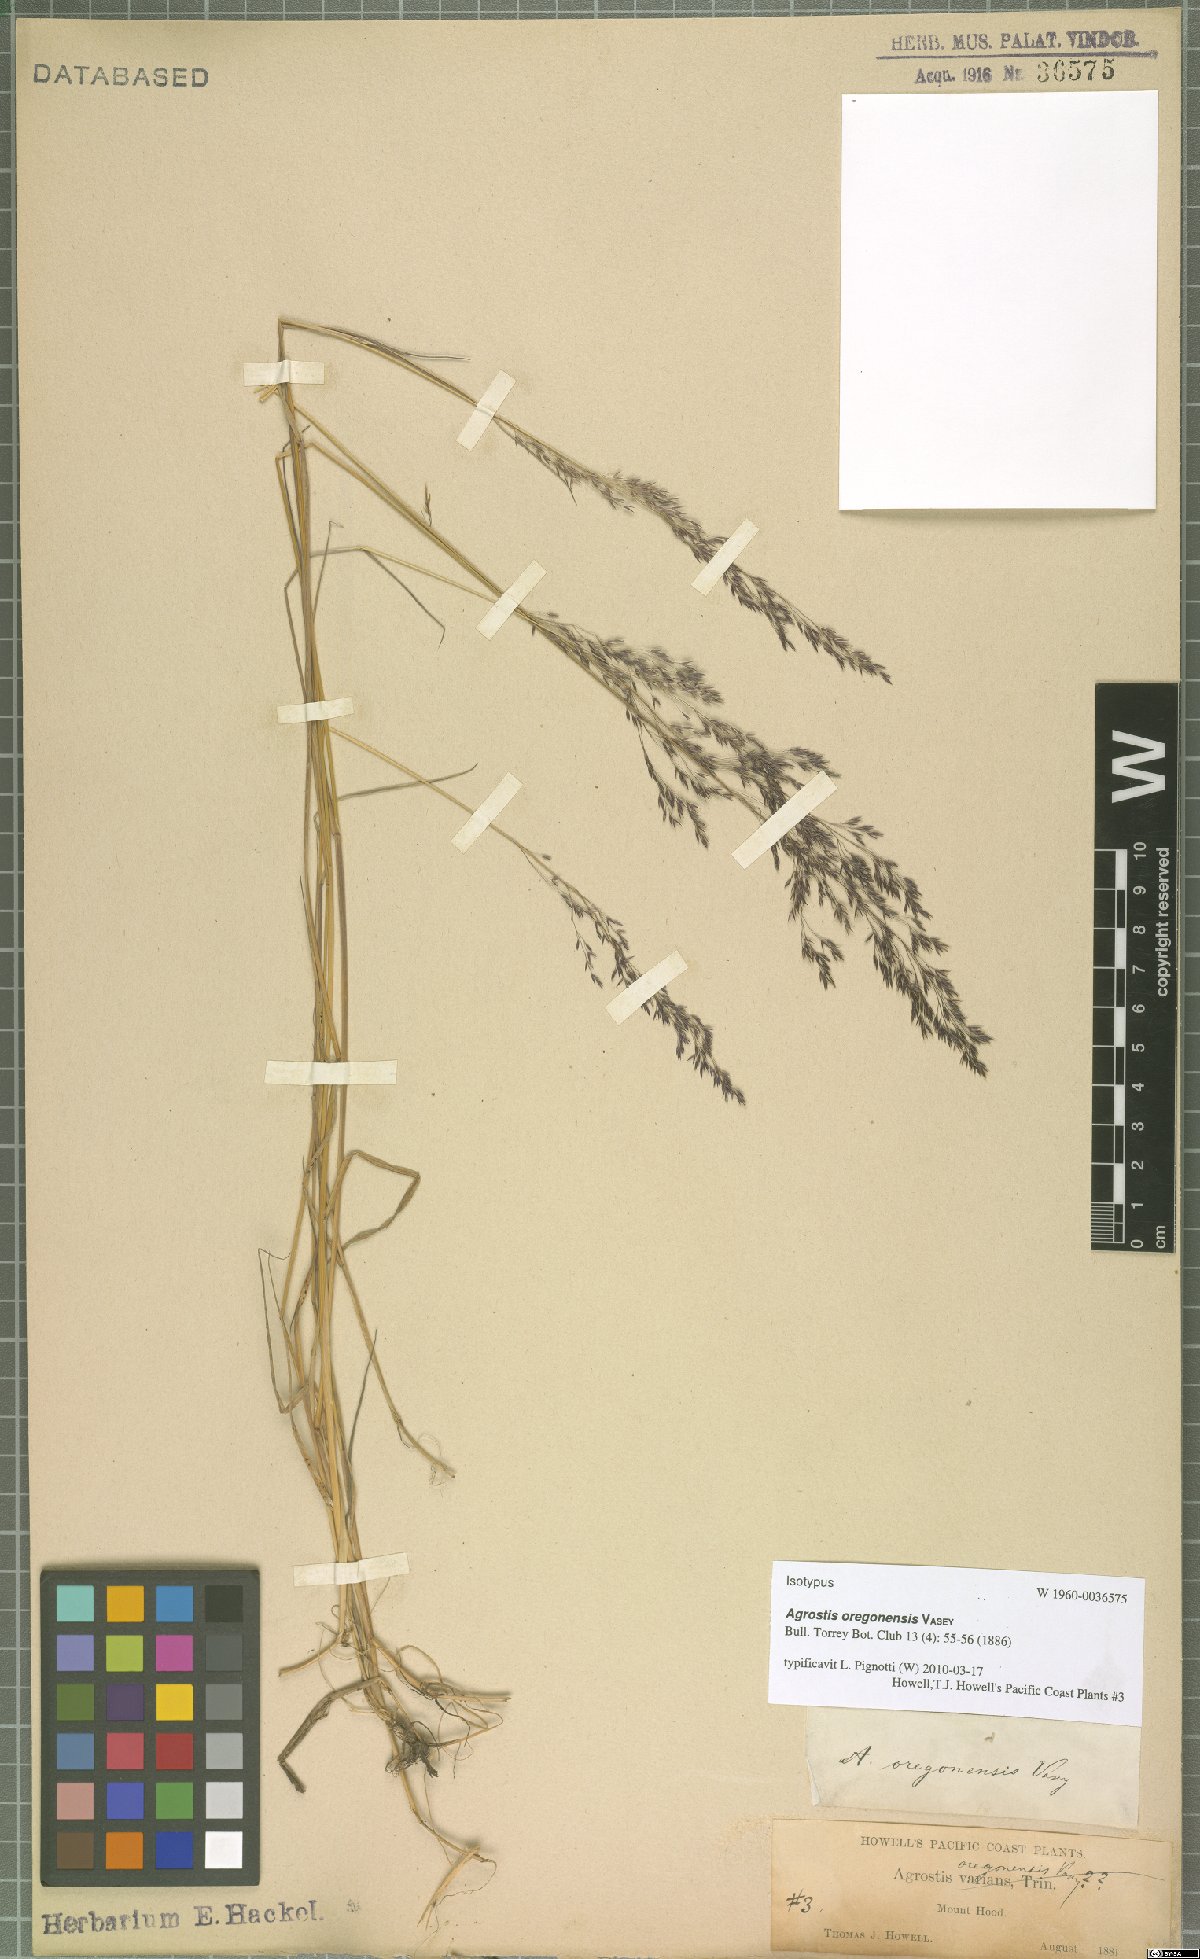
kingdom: Plantae
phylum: Tracheophyta
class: Liliopsida
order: Poales
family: Poaceae
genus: Agrostis
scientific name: Agrostis oregonensis
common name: Oregon bent
